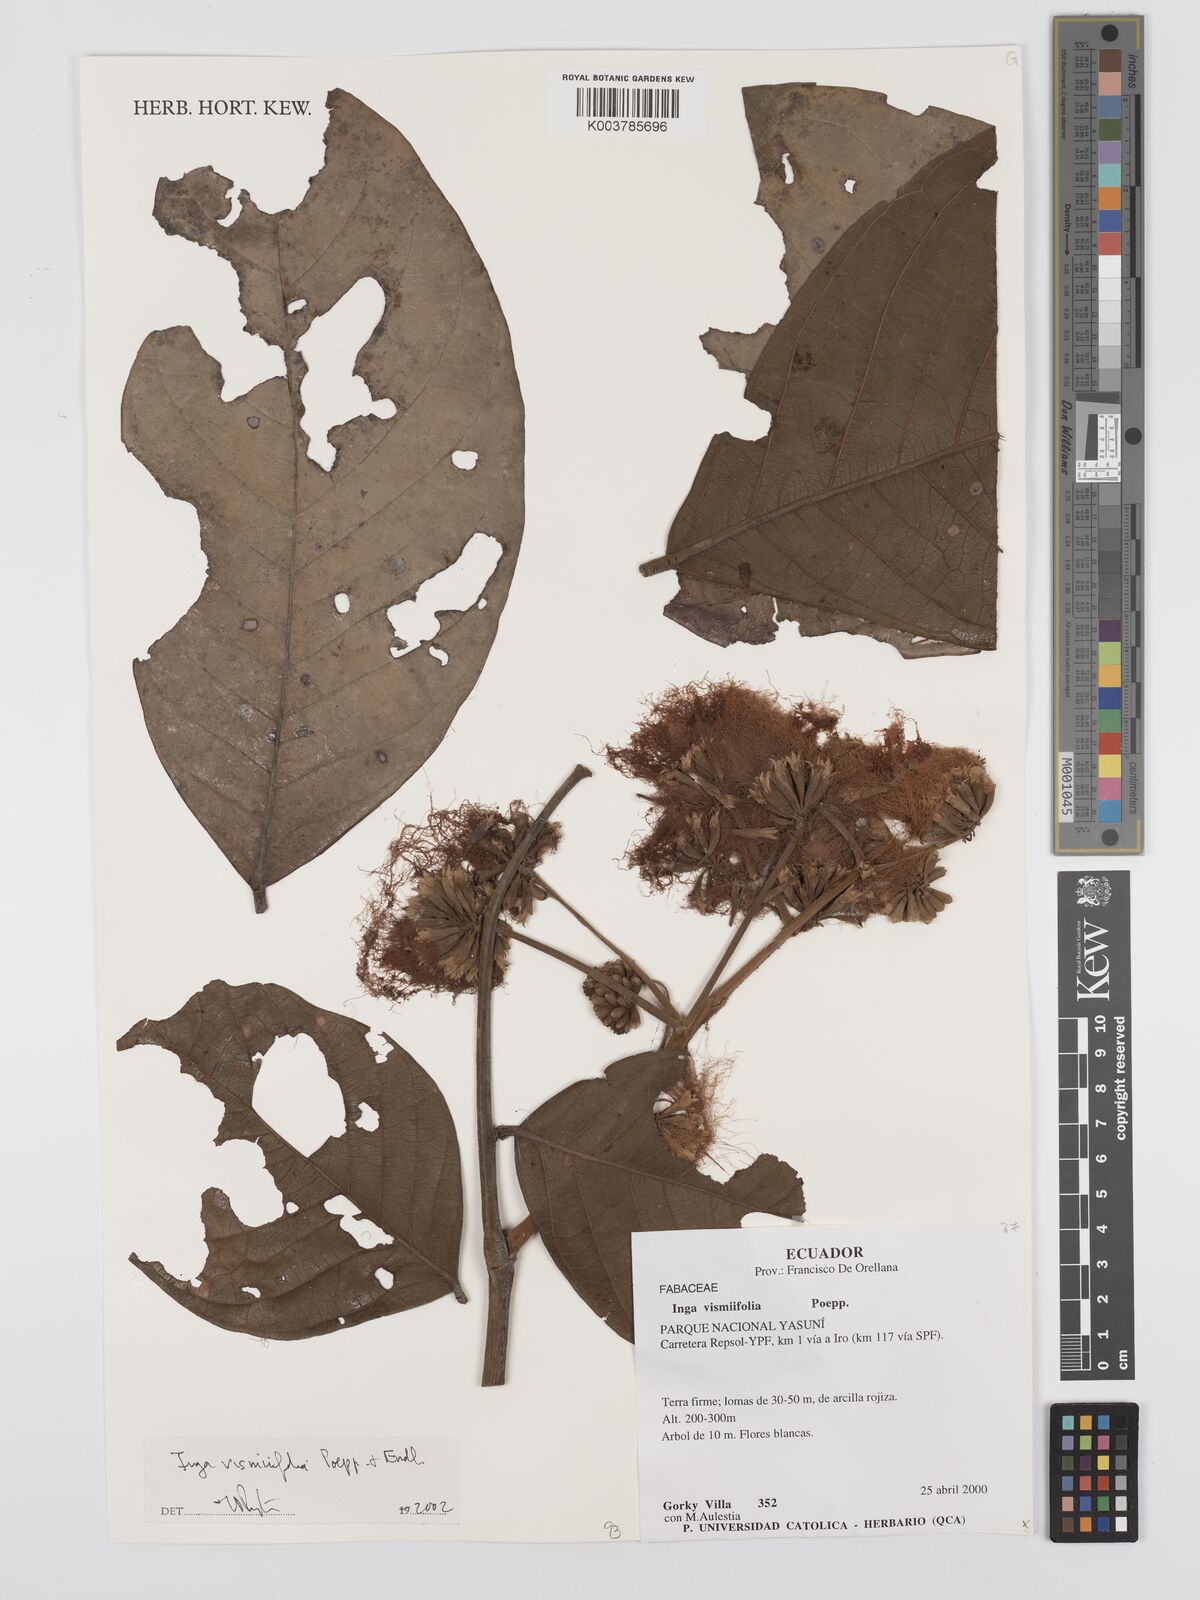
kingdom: Plantae
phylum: Tracheophyta
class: Magnoliopsida
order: Fabales
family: Fabaceae
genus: Inga
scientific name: Inga vismiifolia
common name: Howler monkey inga
